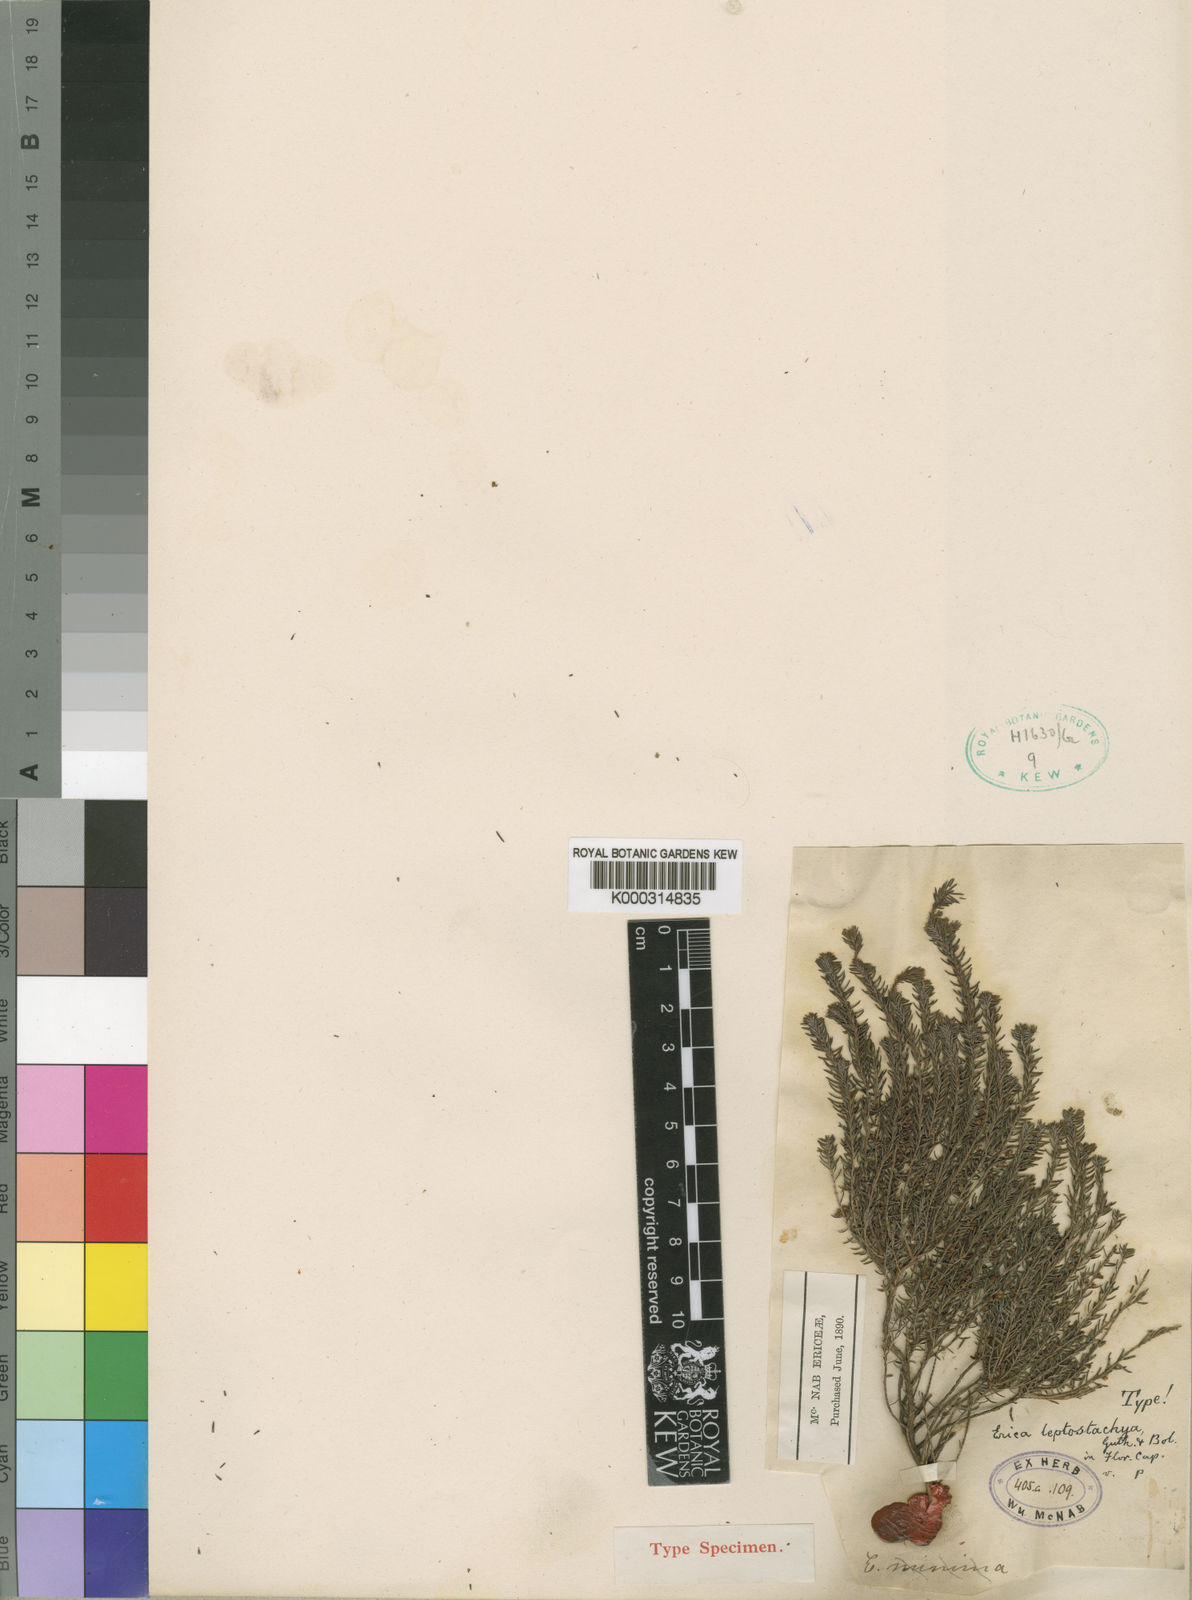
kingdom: Plantae
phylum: Tracheophyta
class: Magnoliopsida
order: Ericales
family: Ericaceae
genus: Erica
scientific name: Erica scoparia
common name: Green heather
